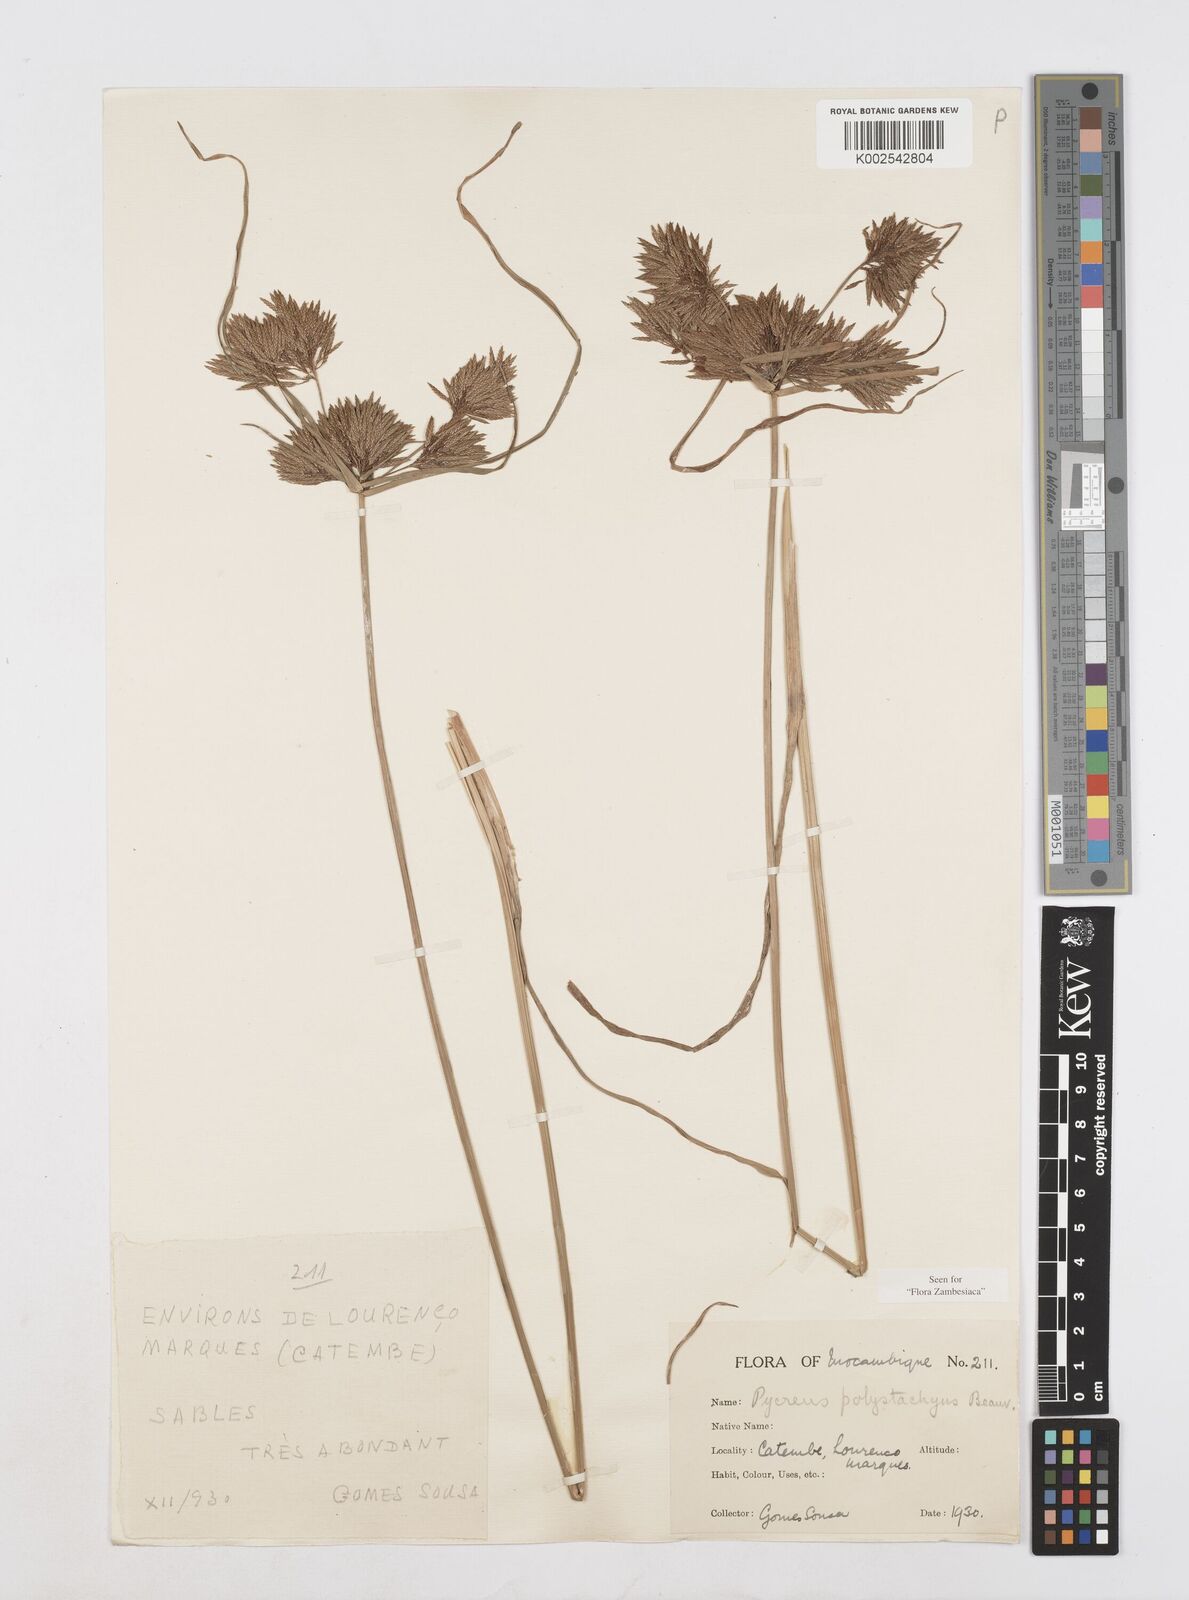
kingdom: Plantae
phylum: Tracheophyta
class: Liliopsida
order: Poales
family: Cyperaceae
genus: Cyperus
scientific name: Cyperus polystachyos
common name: Bunchy flat sedge
